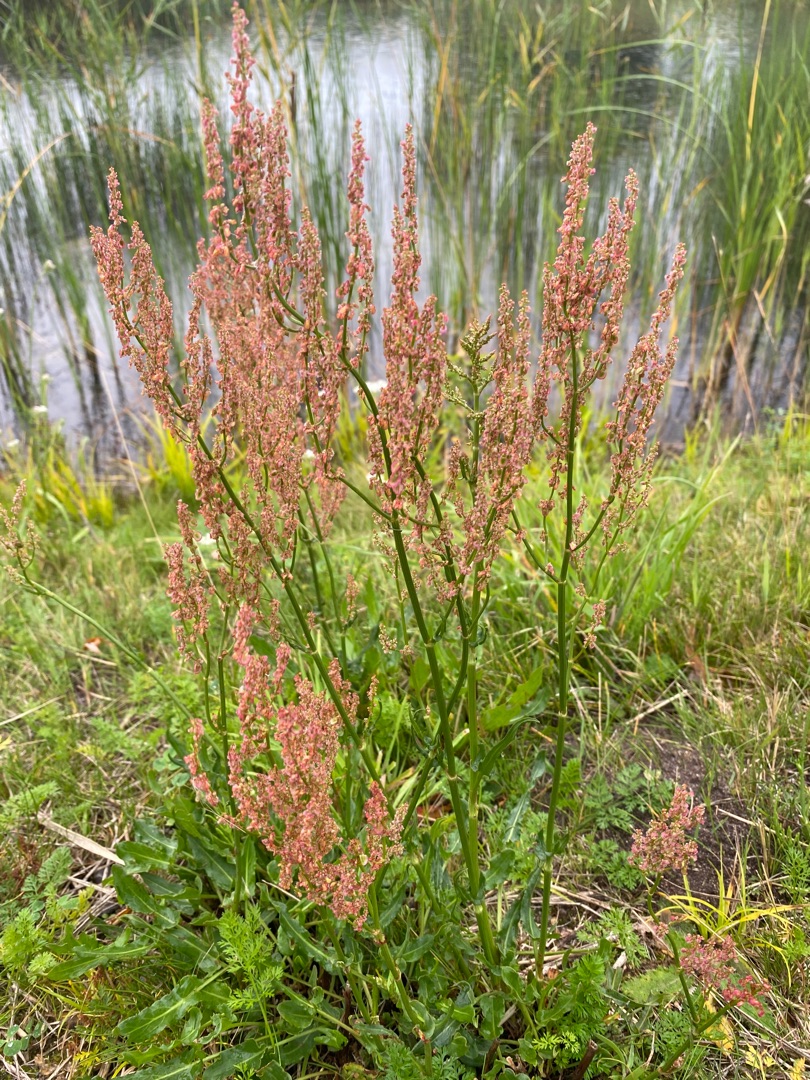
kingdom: Plantae
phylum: Tracheophyta
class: Magnoliopsida
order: Caryophyllales
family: Polygonaceae
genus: Rumex
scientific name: Rumex thyrsiflorus
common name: Dusk-syre
